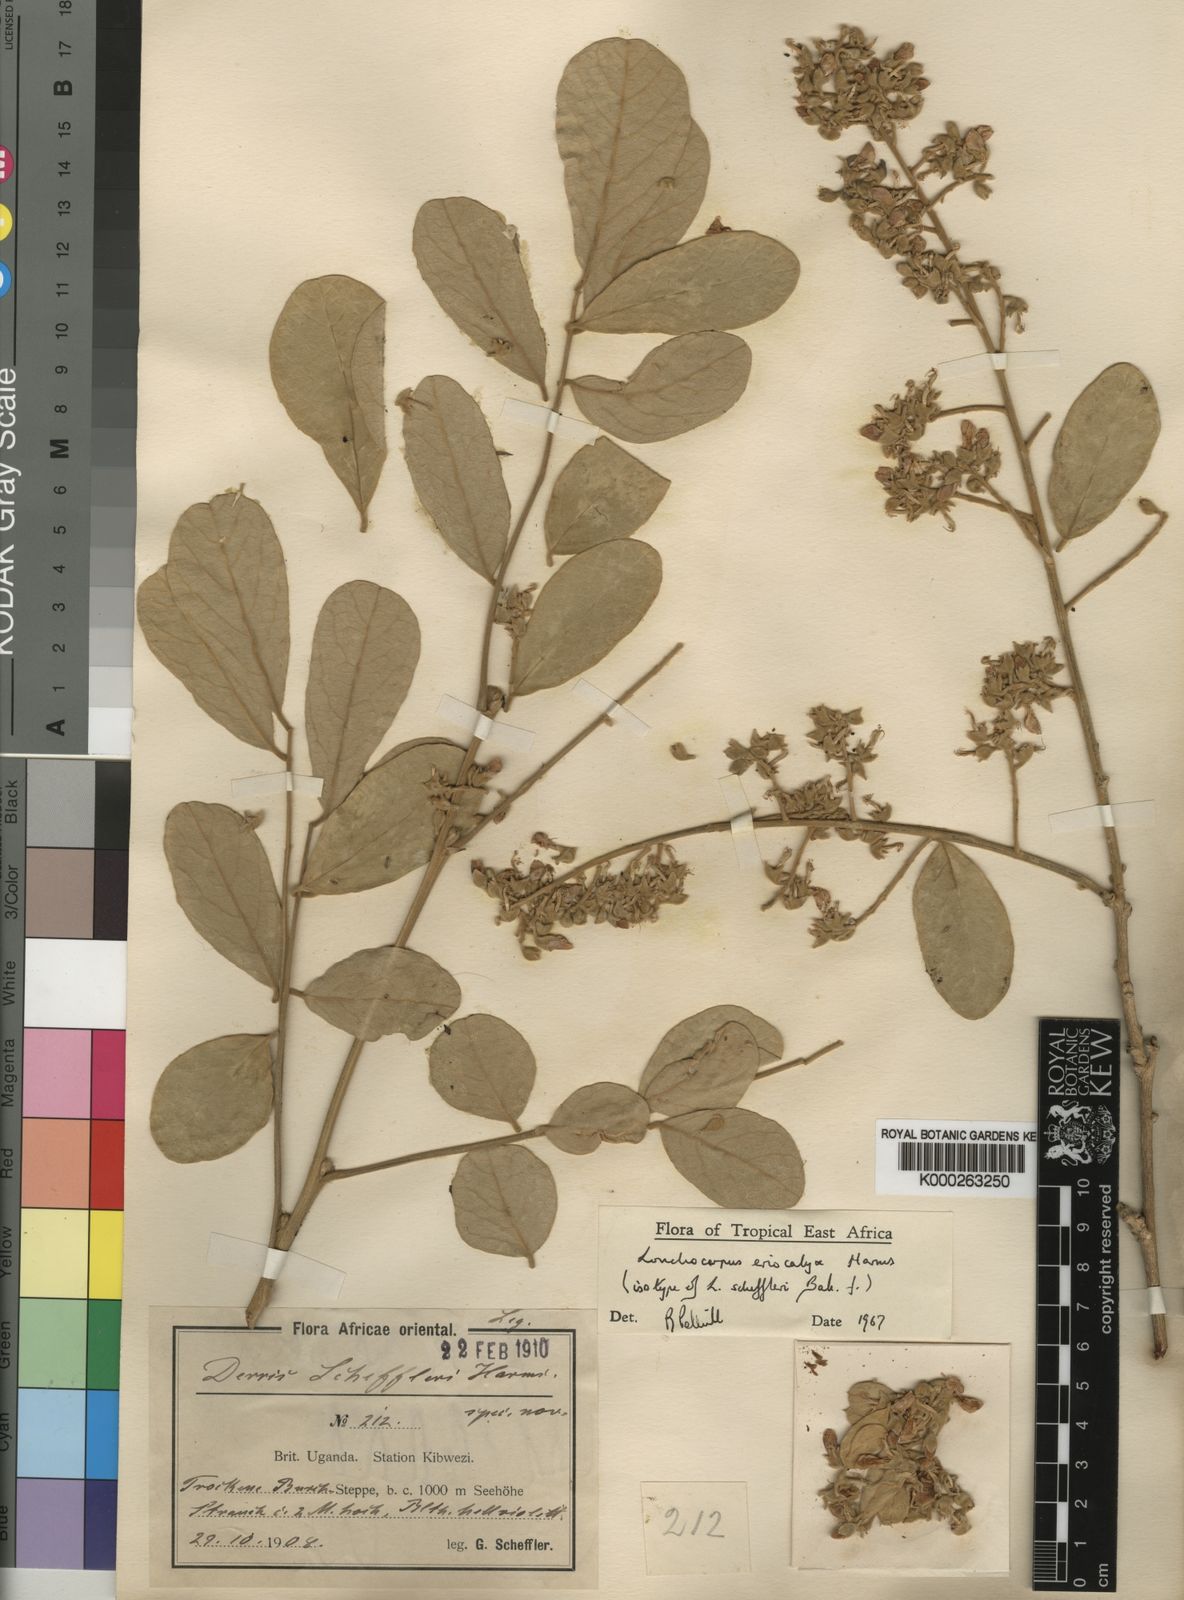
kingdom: Plantae
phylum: Tracheophyta
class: Magnoliopsida
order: Fabales
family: Fabaceae
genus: Philenoptera
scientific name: Philenoptera eriocalyx
